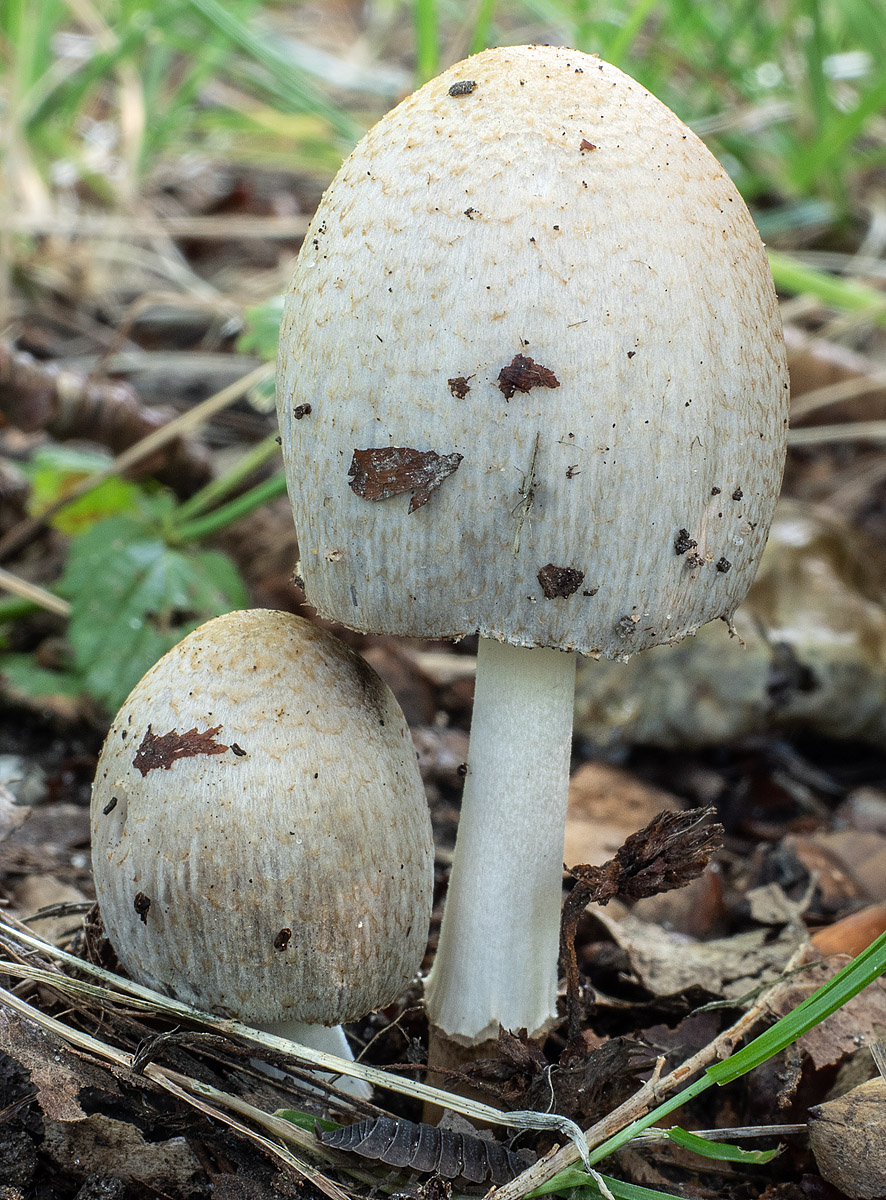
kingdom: Fungi
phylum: Basidiomycota
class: Agaricomycetes
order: Agaricales
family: Psathyrellaceae
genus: Coprinopsis
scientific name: Coprinopsis romagnesiana
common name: brunskællet blækhat
